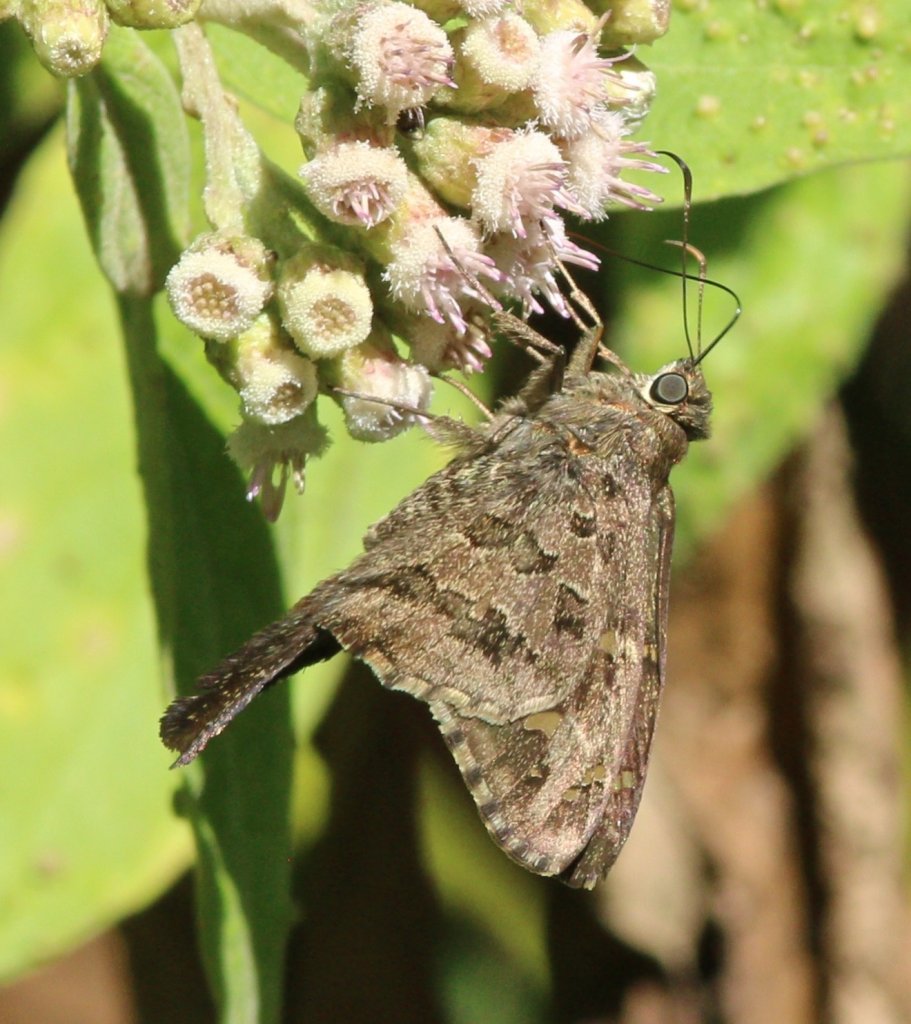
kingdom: Animalia
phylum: Arthropoda
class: Insecta
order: Lepidoptera
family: Hesperiidae
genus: Urbanus
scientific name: Urbanus dorantes
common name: Dorantes Longtail
